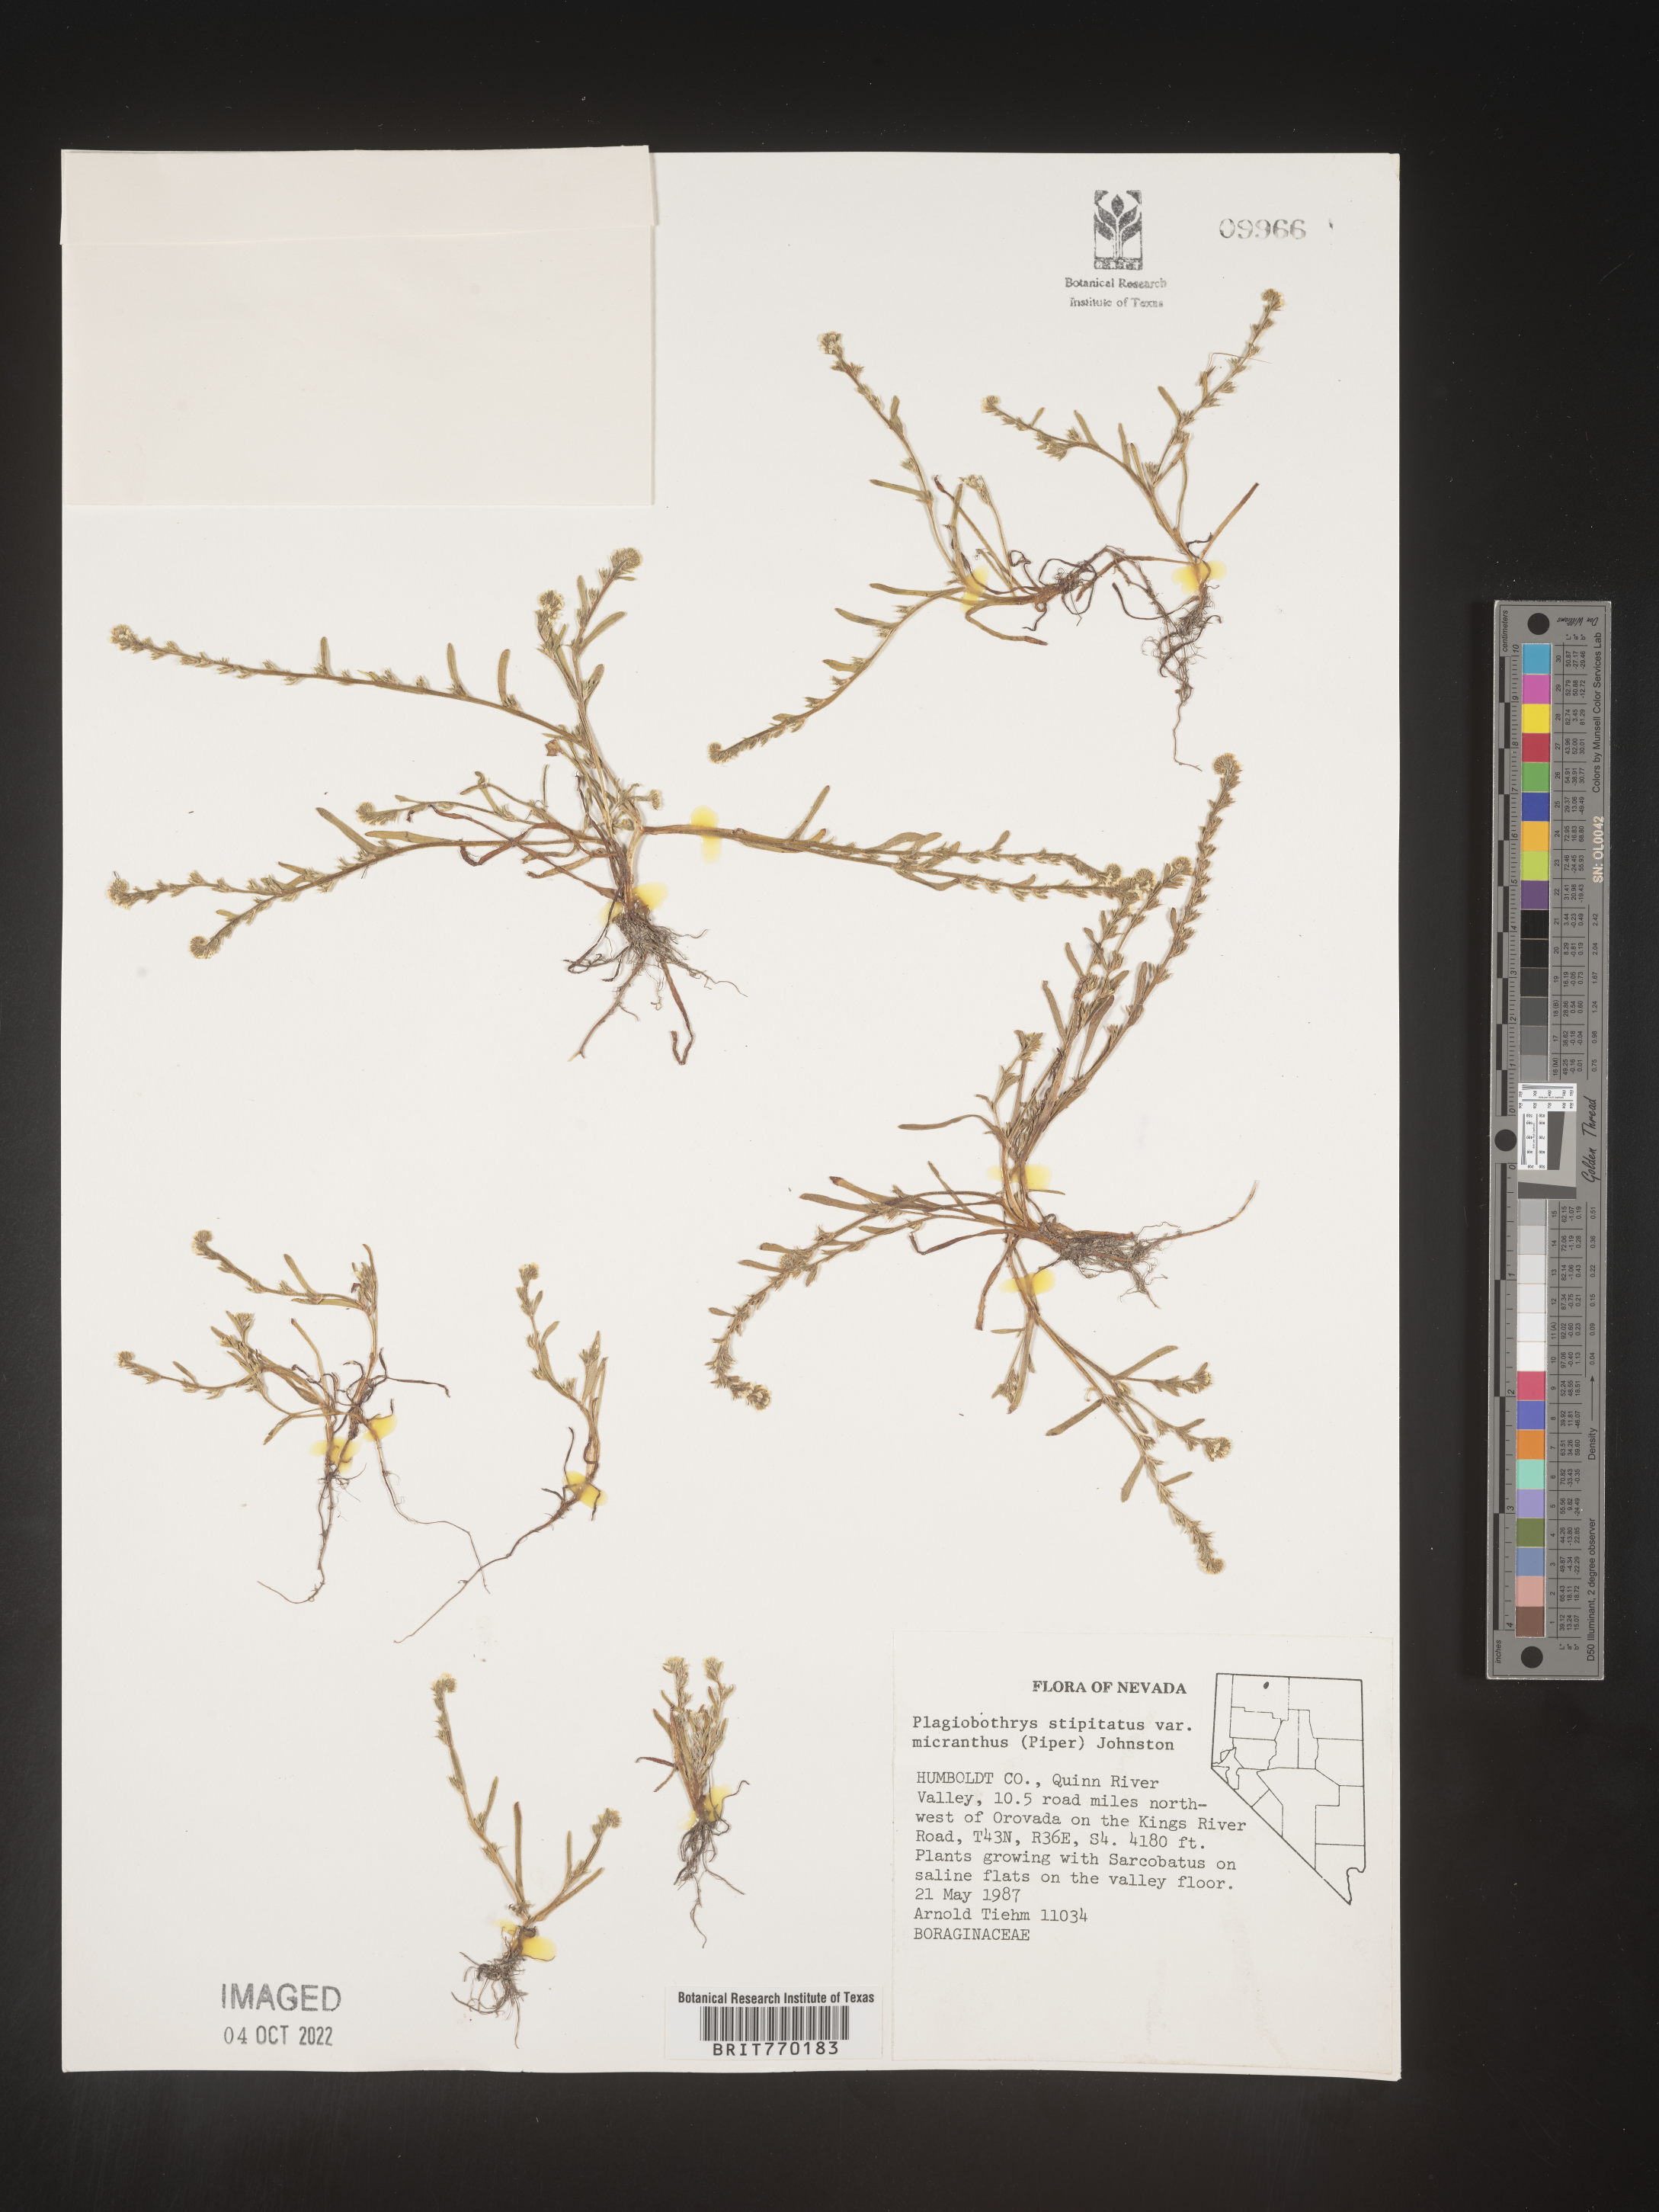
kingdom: Plantae
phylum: Tracheophyta
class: Magnoliopsida
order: Boraginales
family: Boraginaceae
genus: Plagiobothrys
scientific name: Plagiobothrys
